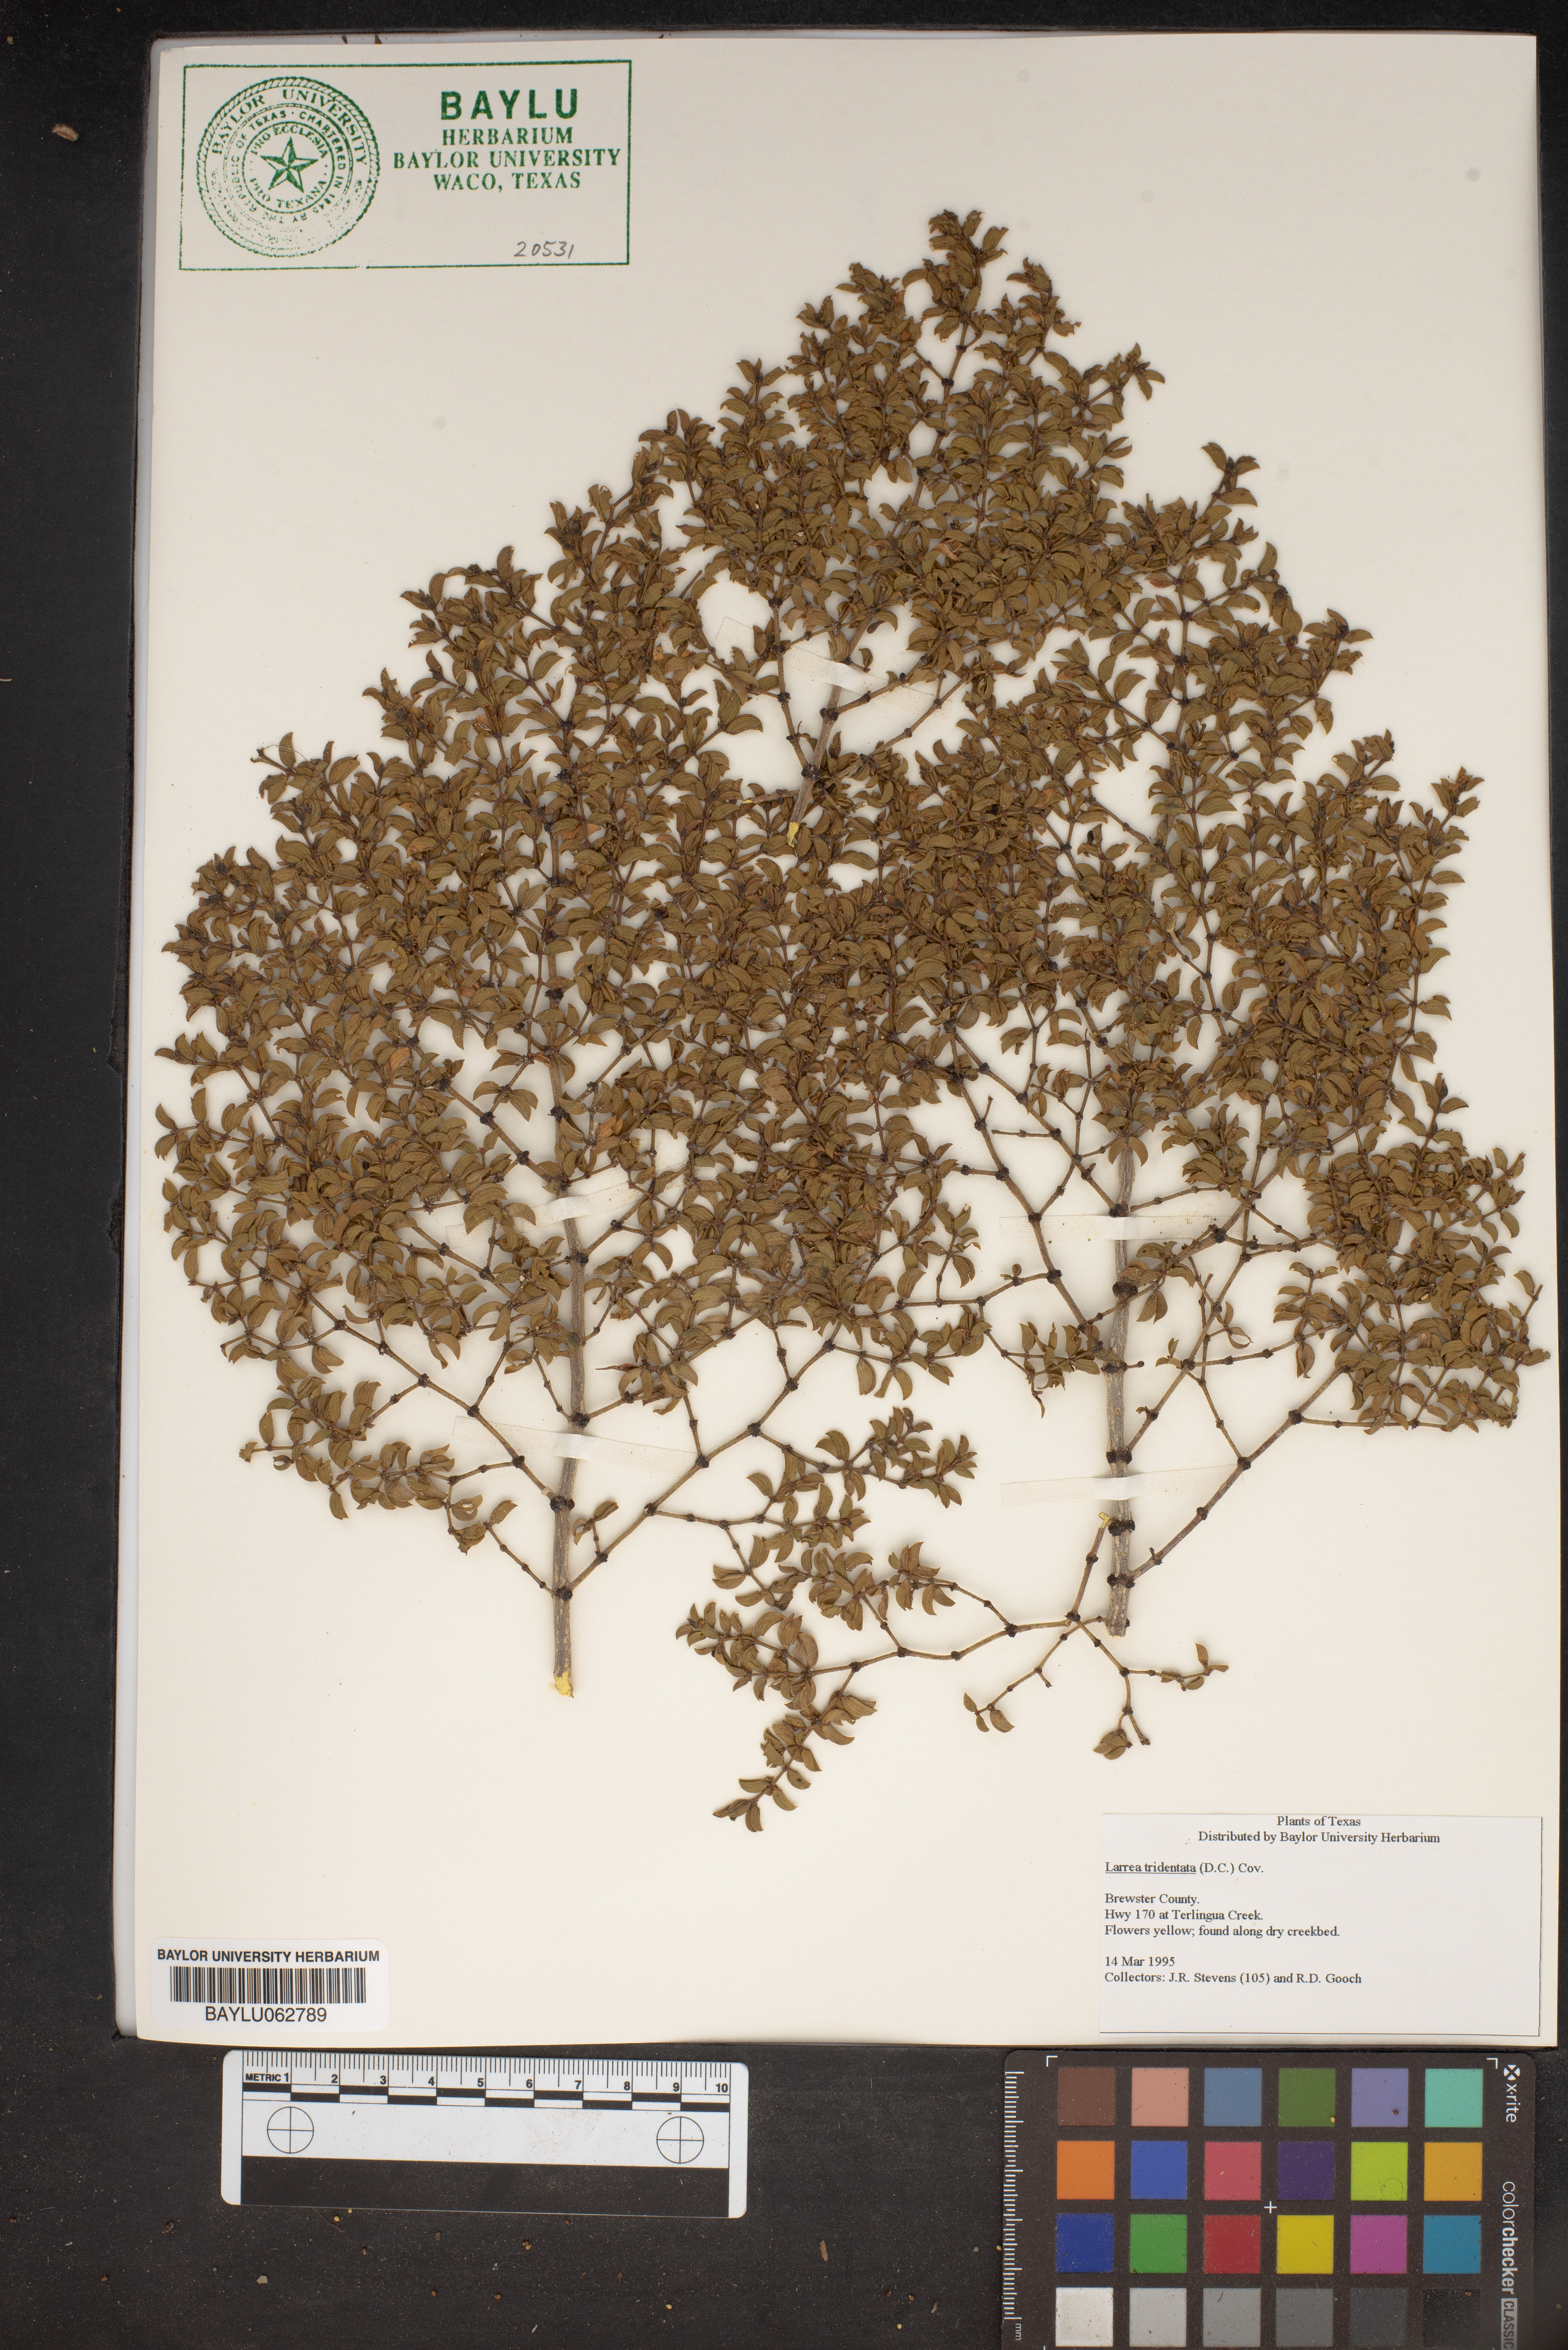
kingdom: Plantae
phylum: Tracheophyta
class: Magnoliopsida
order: Zygophyllales
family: Zygophyllaceae
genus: Larrea
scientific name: Larrea tridentata
